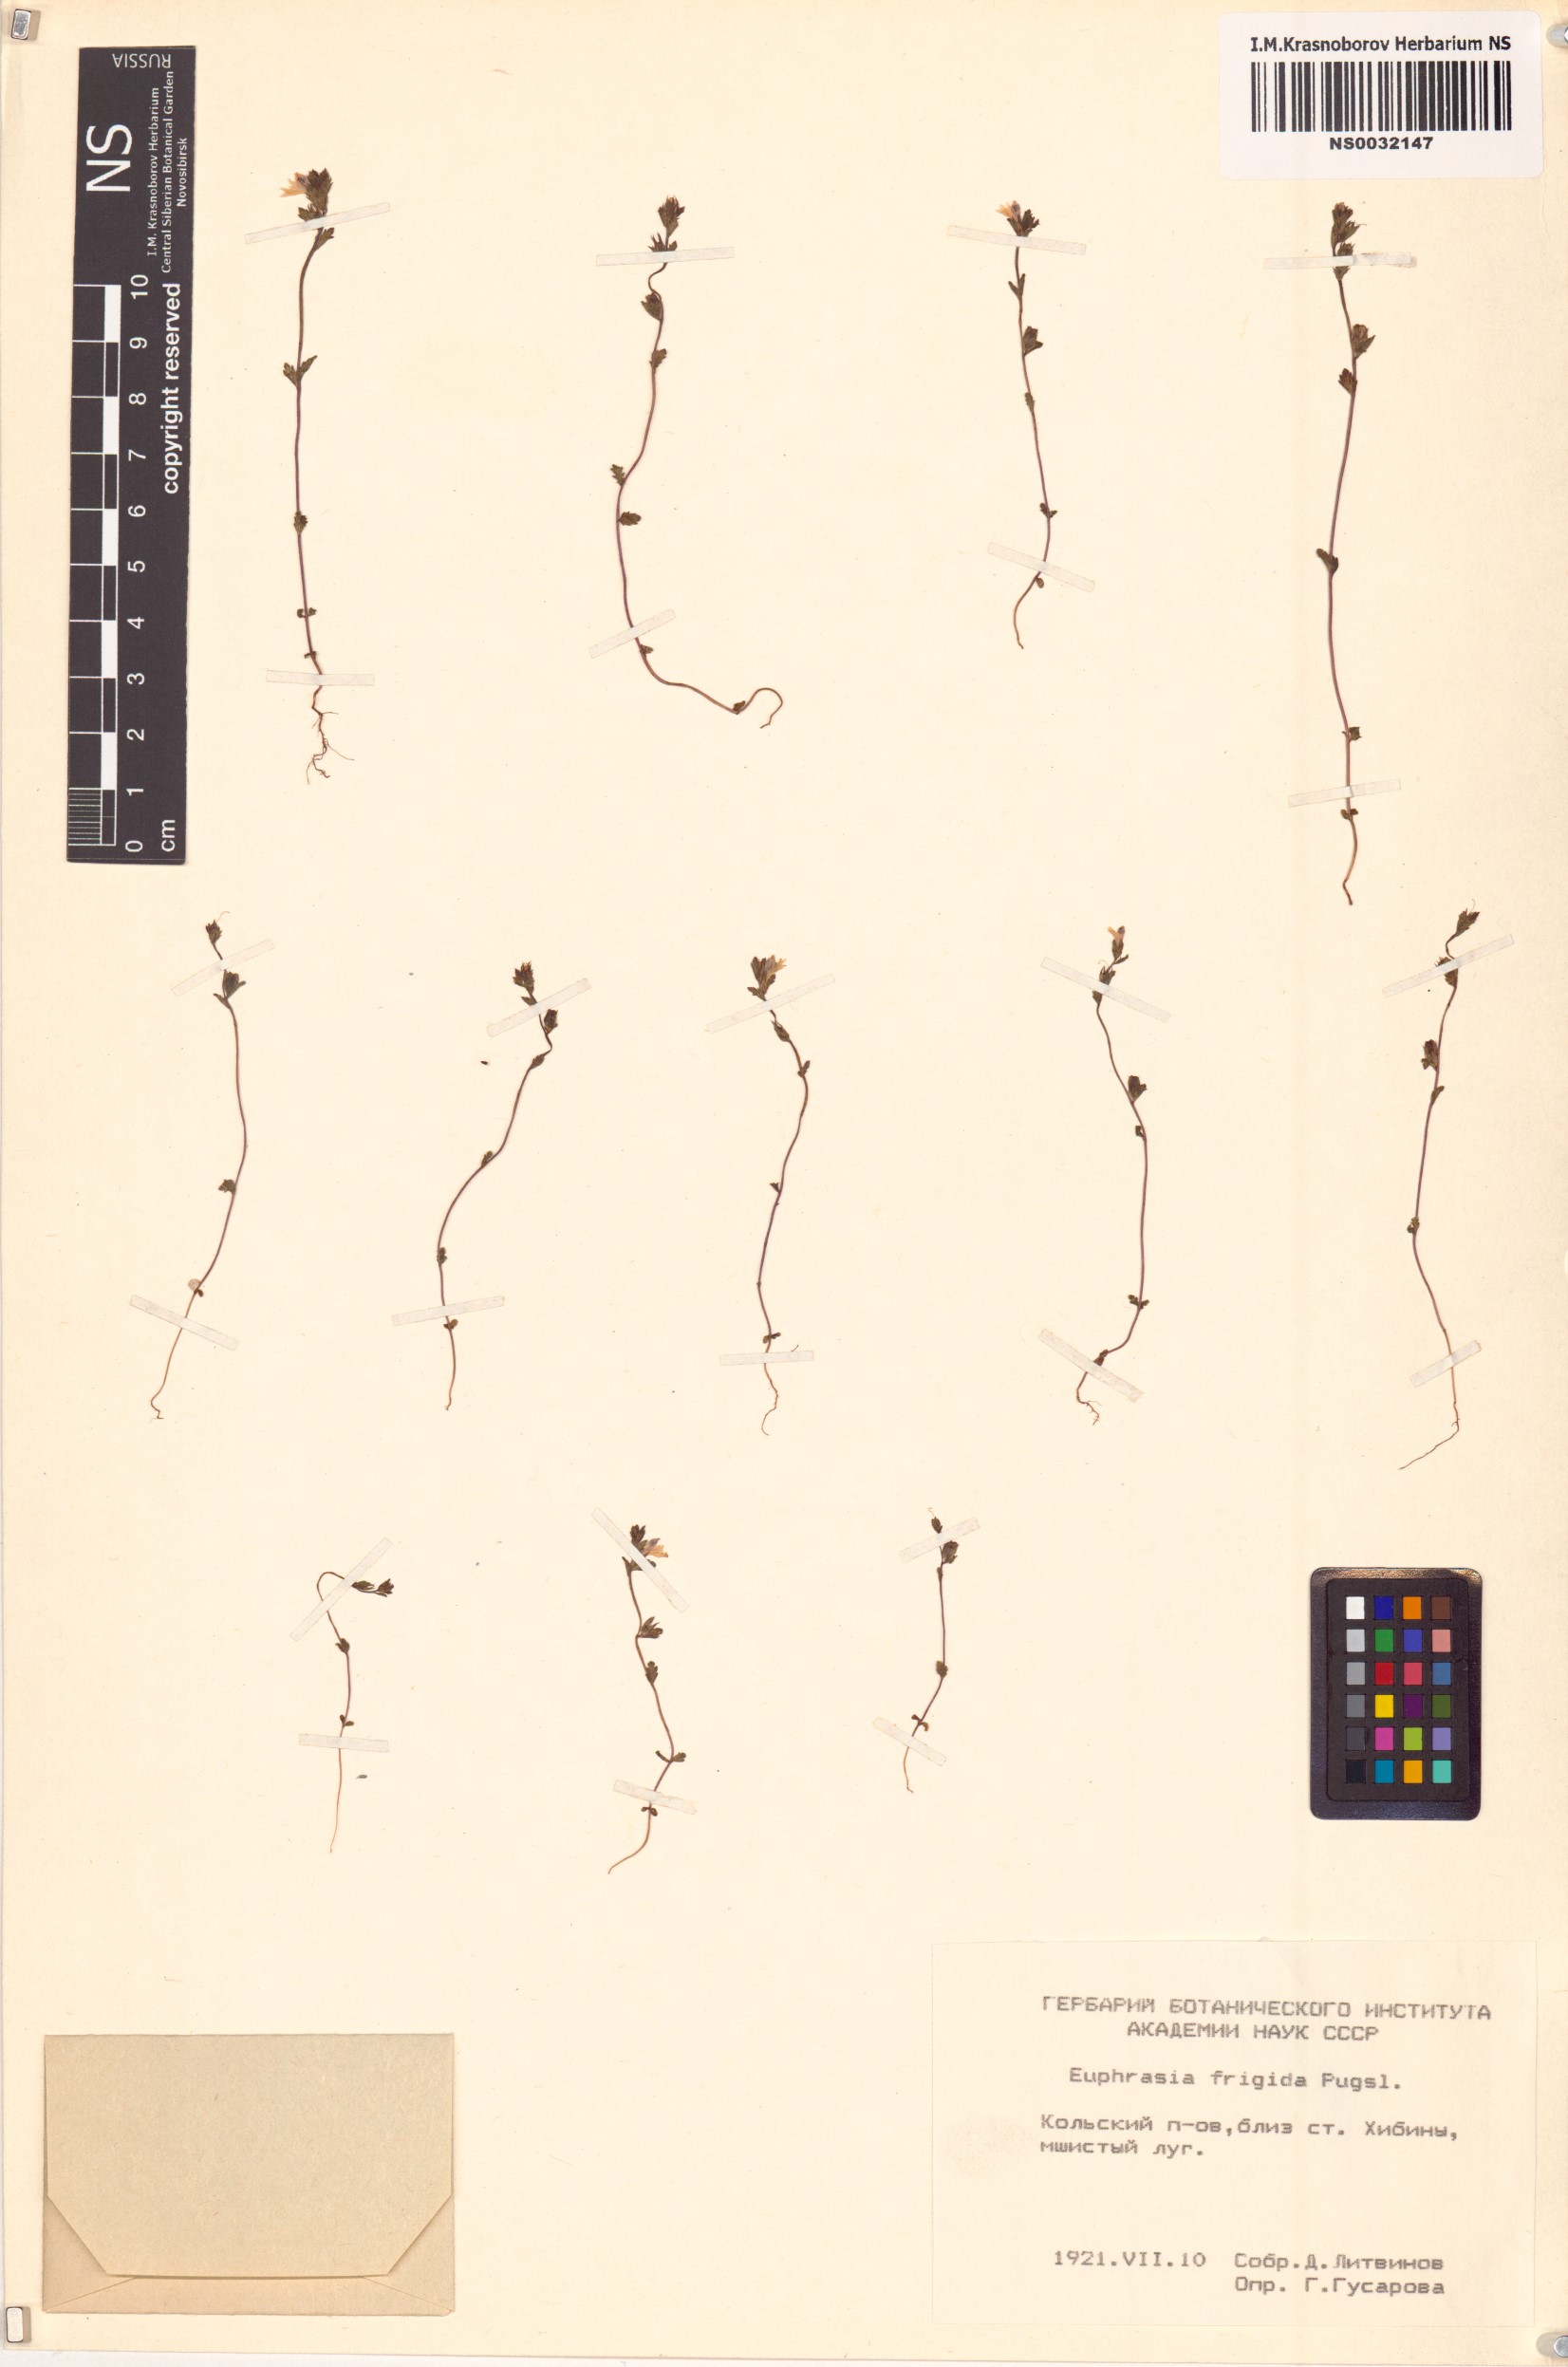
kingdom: Plantae
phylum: Tracheophyta
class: Magnoliopsida
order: Lamiales
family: Orobanchaceae
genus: Euphrasia
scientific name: Euphrasia frigida
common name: An eyebright
